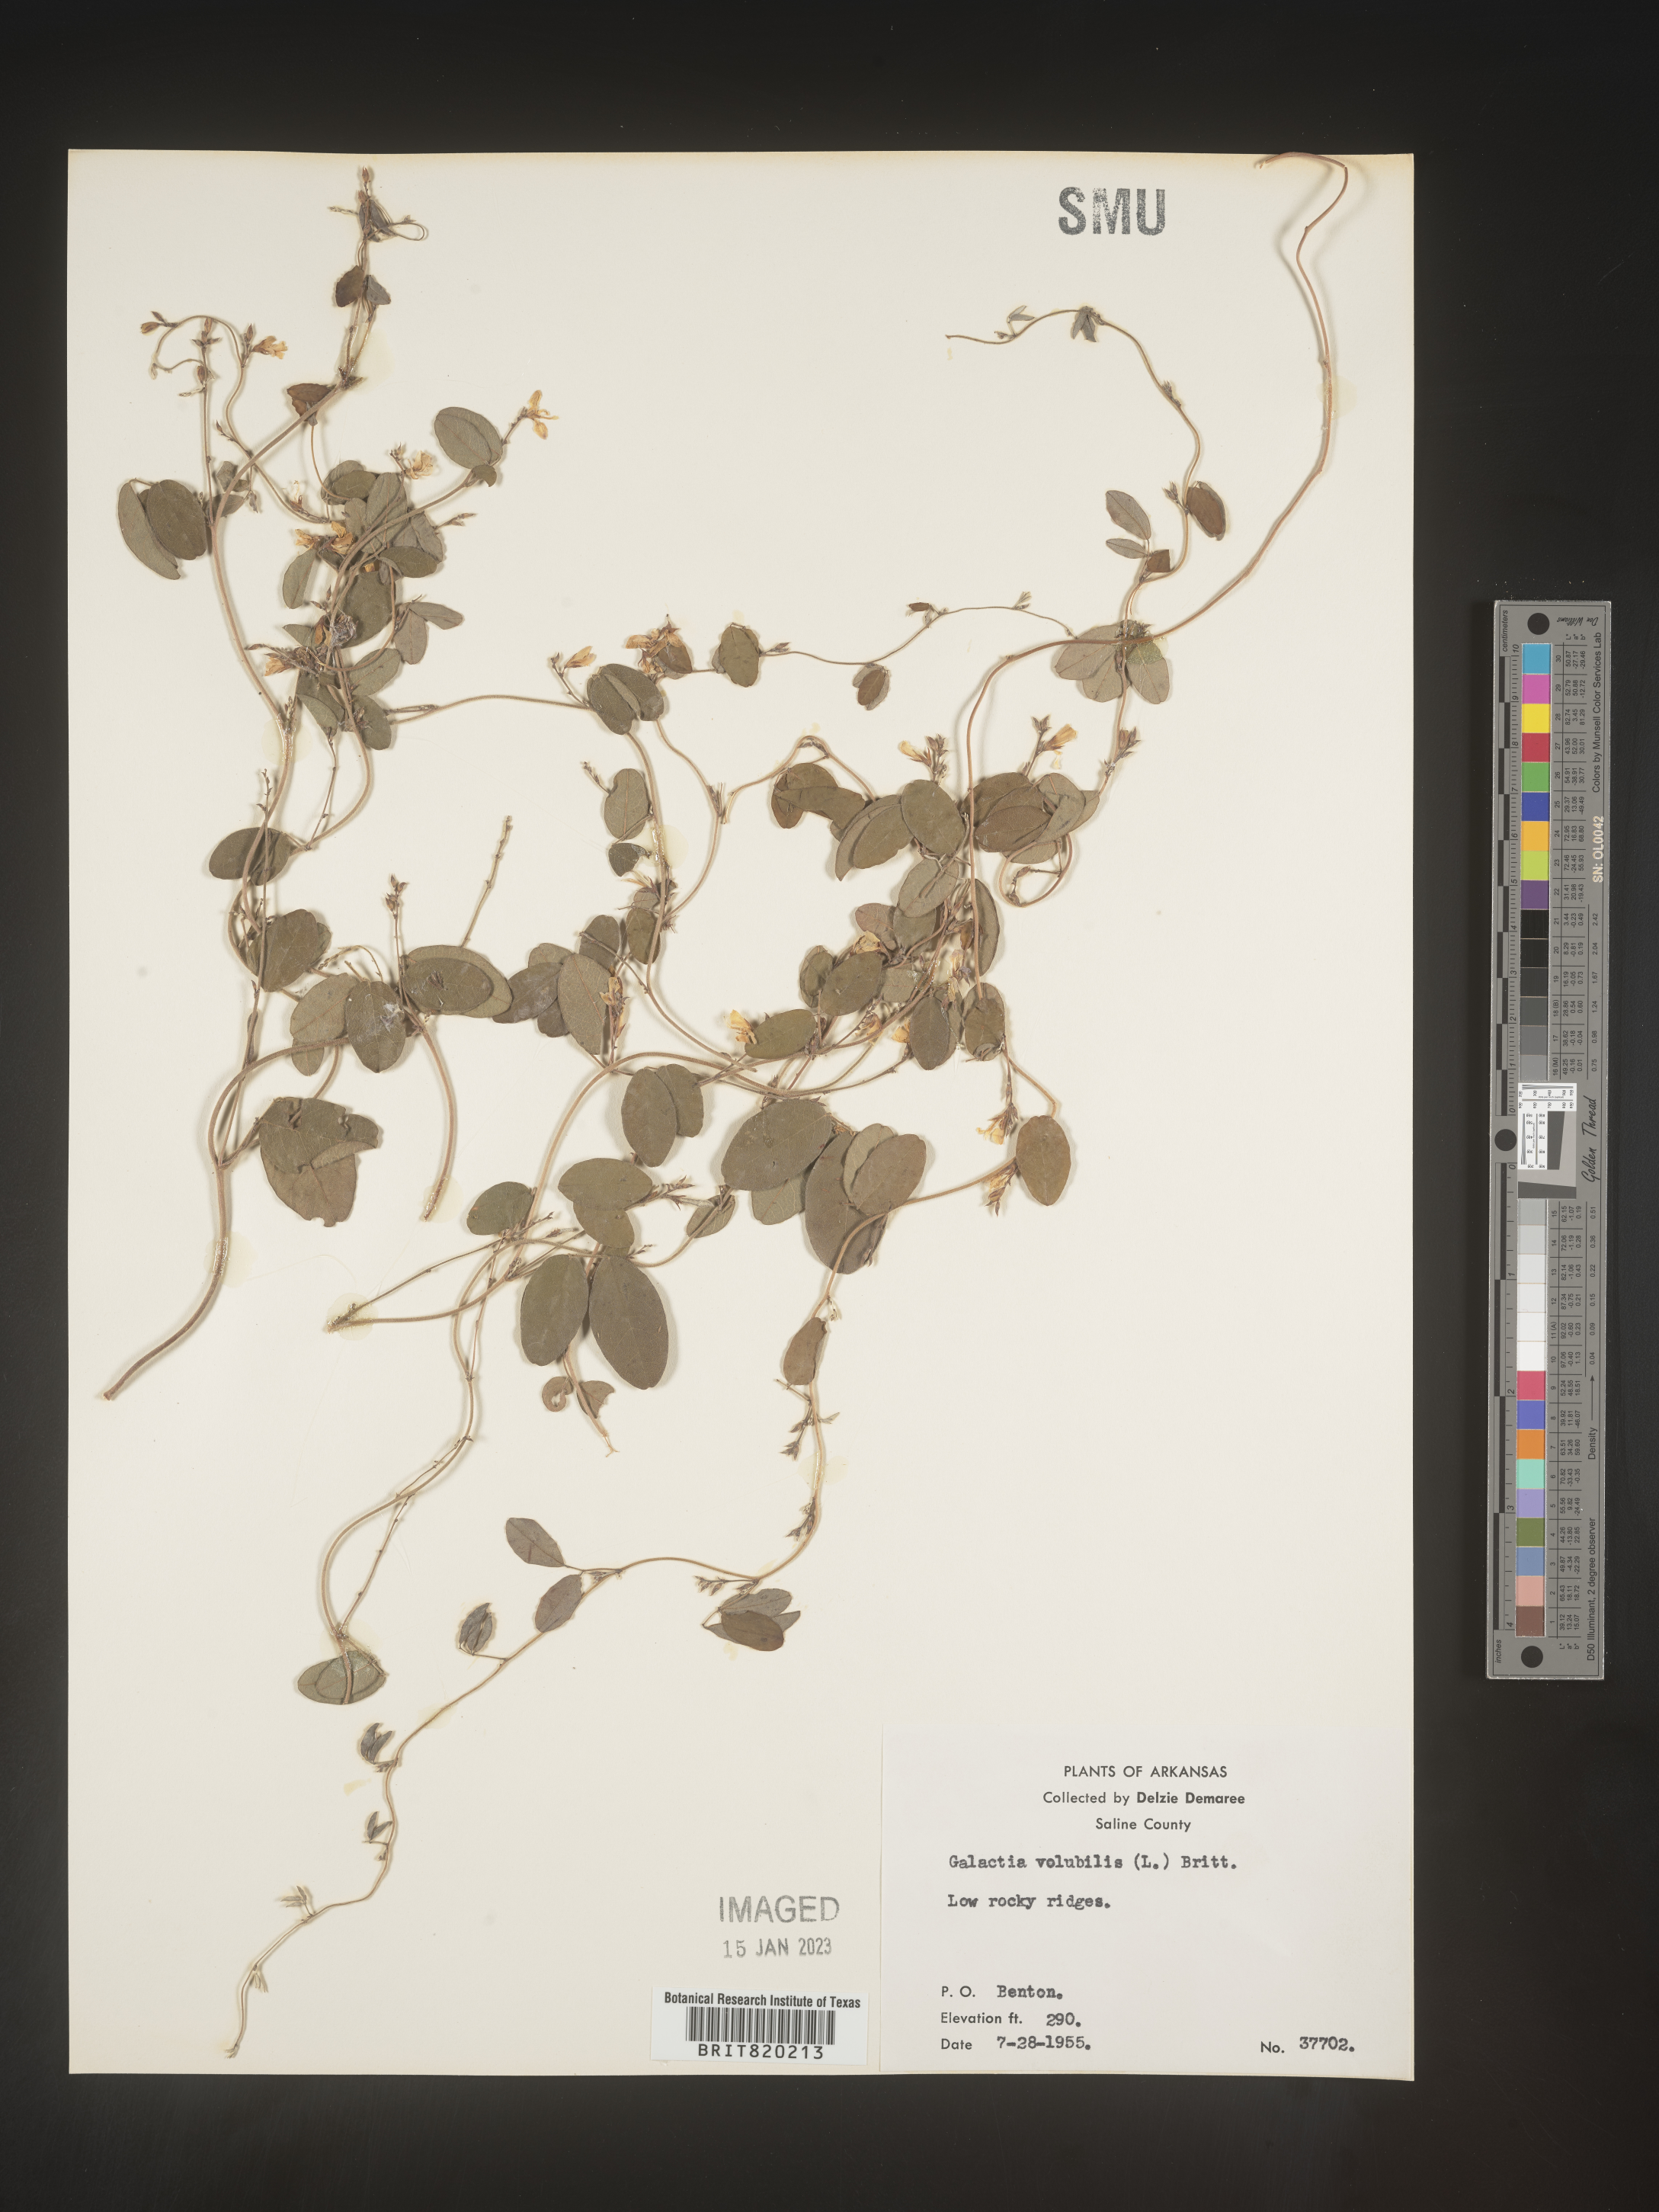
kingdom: Plantae
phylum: Tracheophyta
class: Magnoliopsida
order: Fabales
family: Fabaceae
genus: Galactia
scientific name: Galactia volubilis
